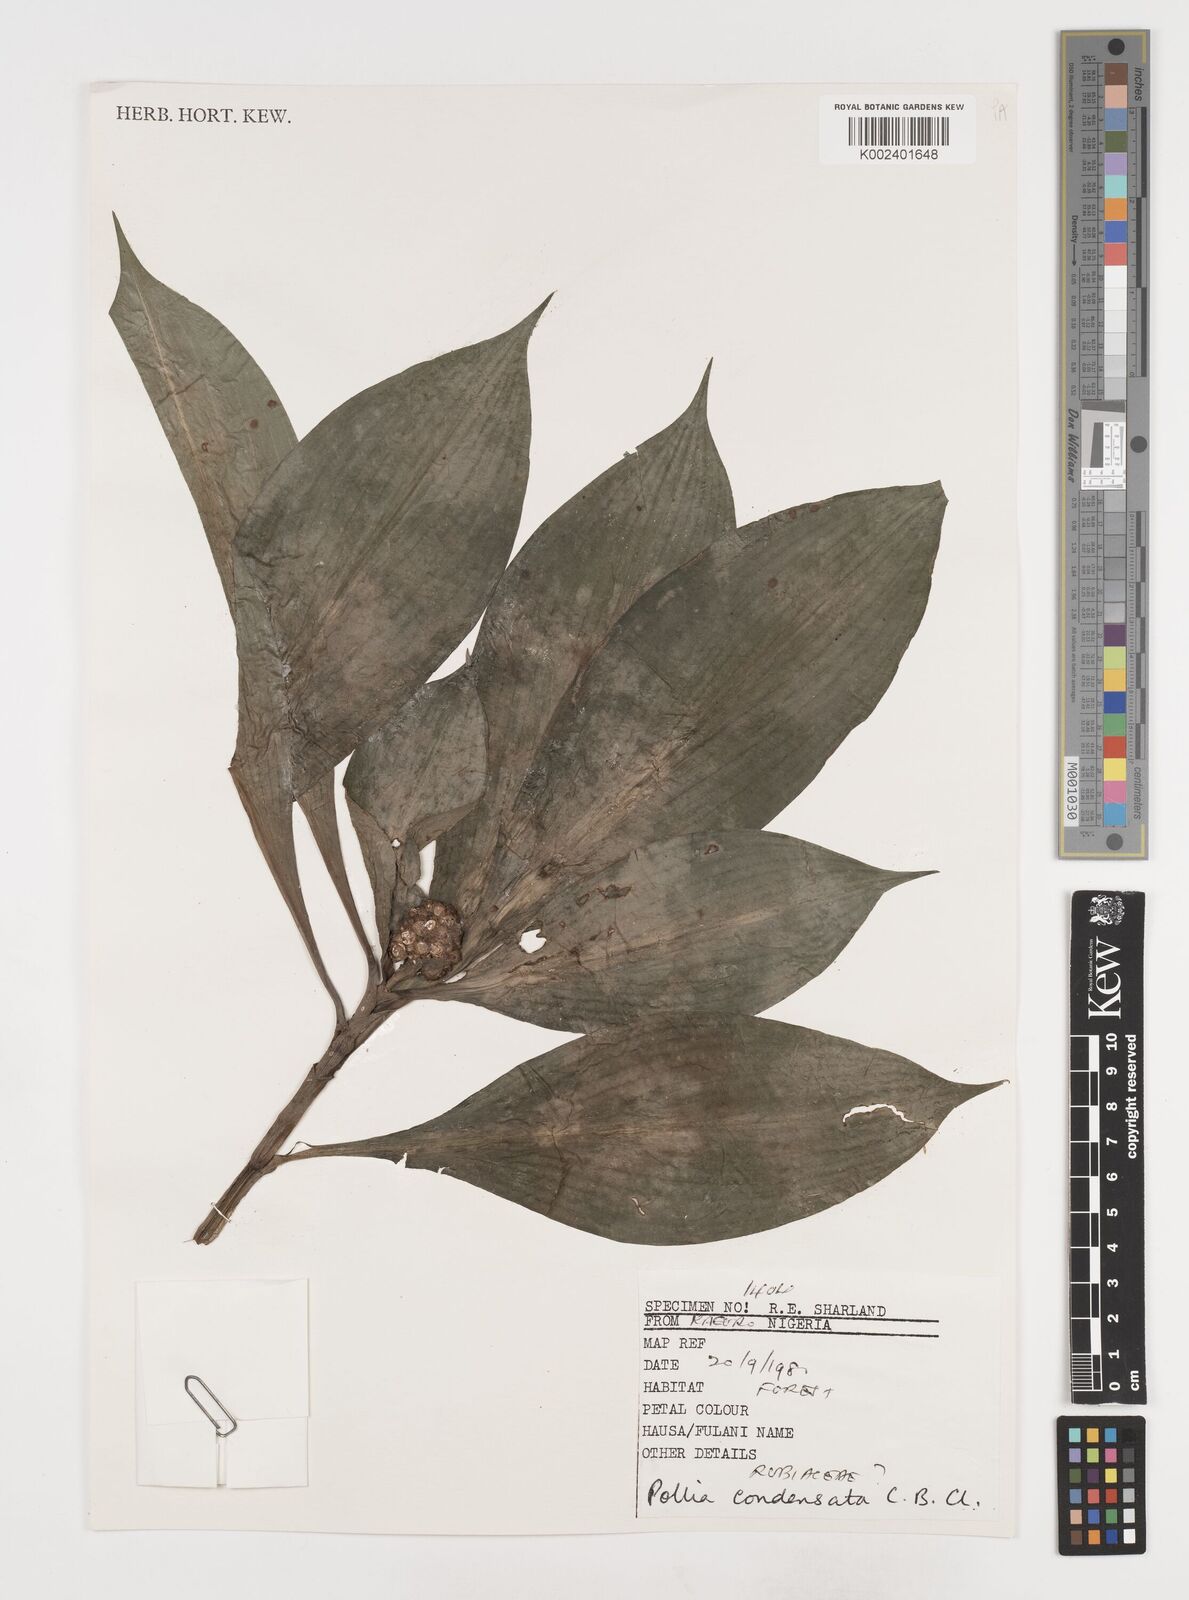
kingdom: Plantae
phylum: Tracheophyta
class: Liliopsida
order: Commelinales
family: Commelinaceae
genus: Pollia
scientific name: Pollia condensata
